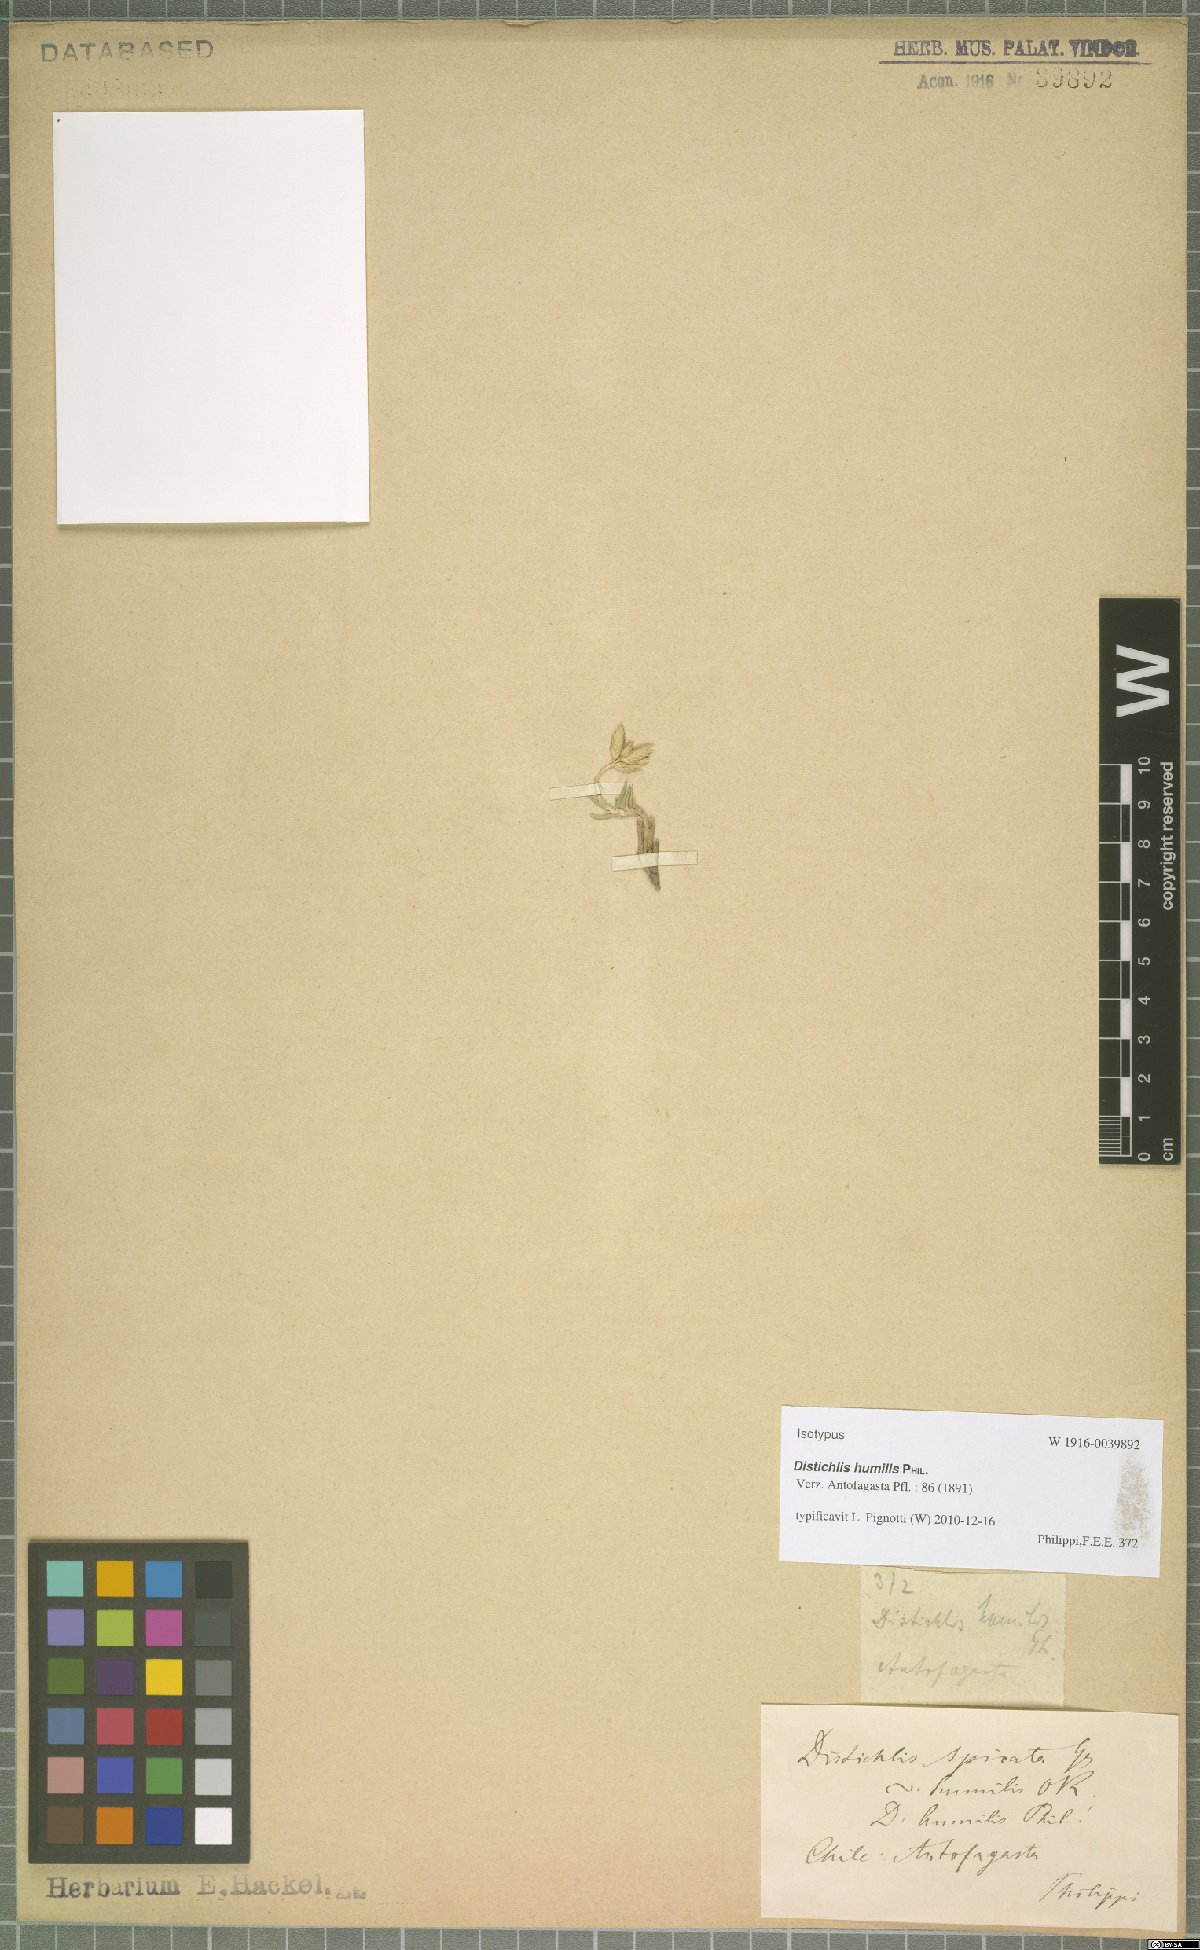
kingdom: Plantae
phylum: Tracheophyta
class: Liliopsida
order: Poales
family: Poaceae
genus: Distichlis
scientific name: Distichlis humilis
